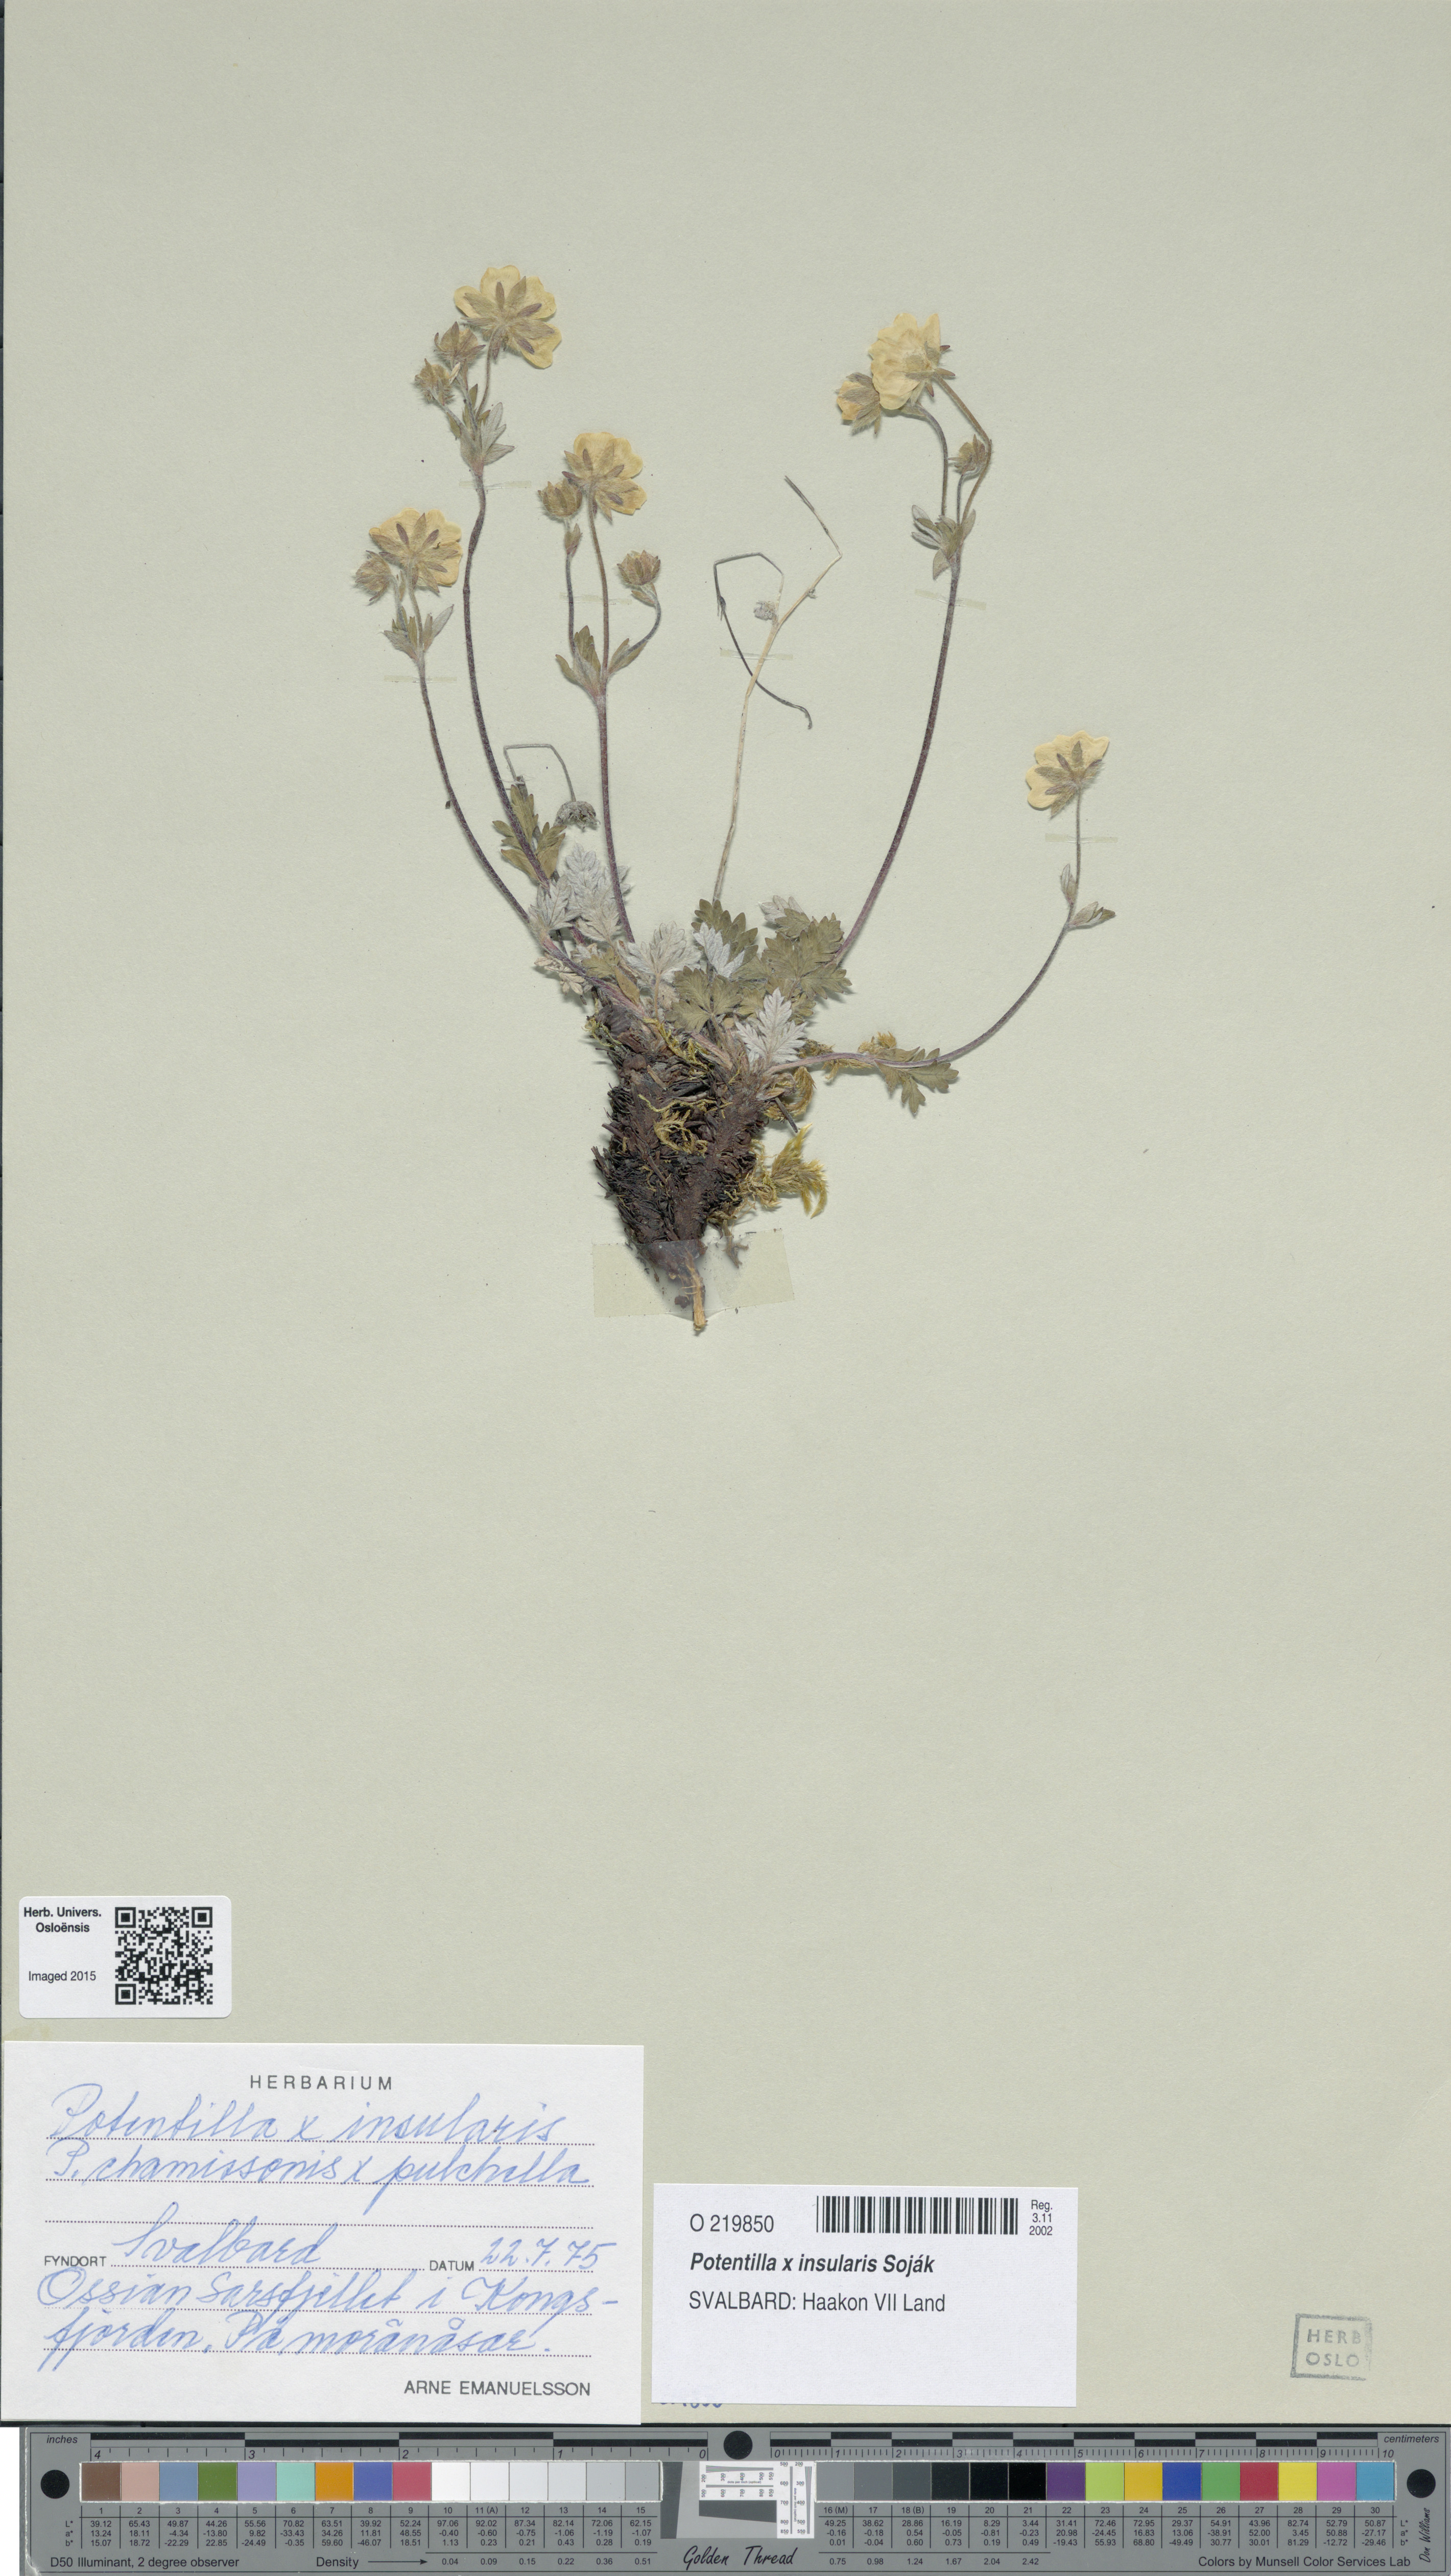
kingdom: Plantae
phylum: Tracheophyta
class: Magnoliopsida
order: Rosales
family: Rosaceae
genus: Potentilla
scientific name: Potentilla insularis
